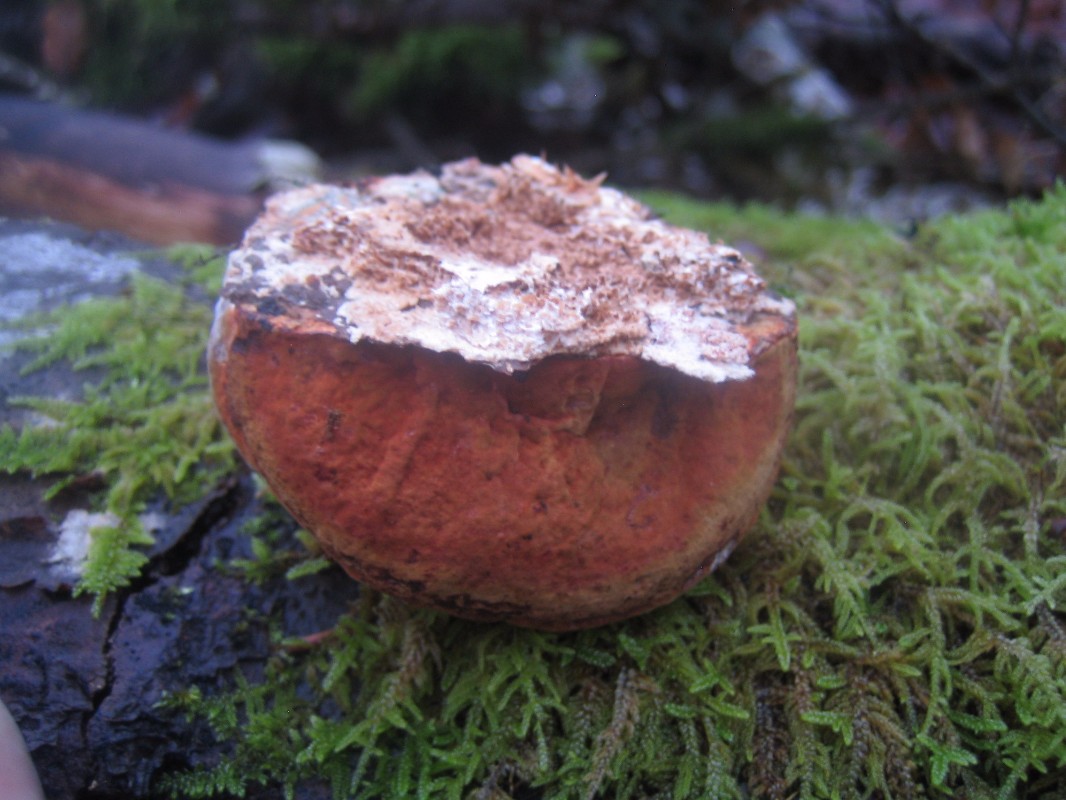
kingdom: Fungi
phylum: Basidiomycota
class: Agaricomycetes
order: Polyporales
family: Polyporaceae
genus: Fomes
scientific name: Fomes fomentarius
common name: tøndersvamp
